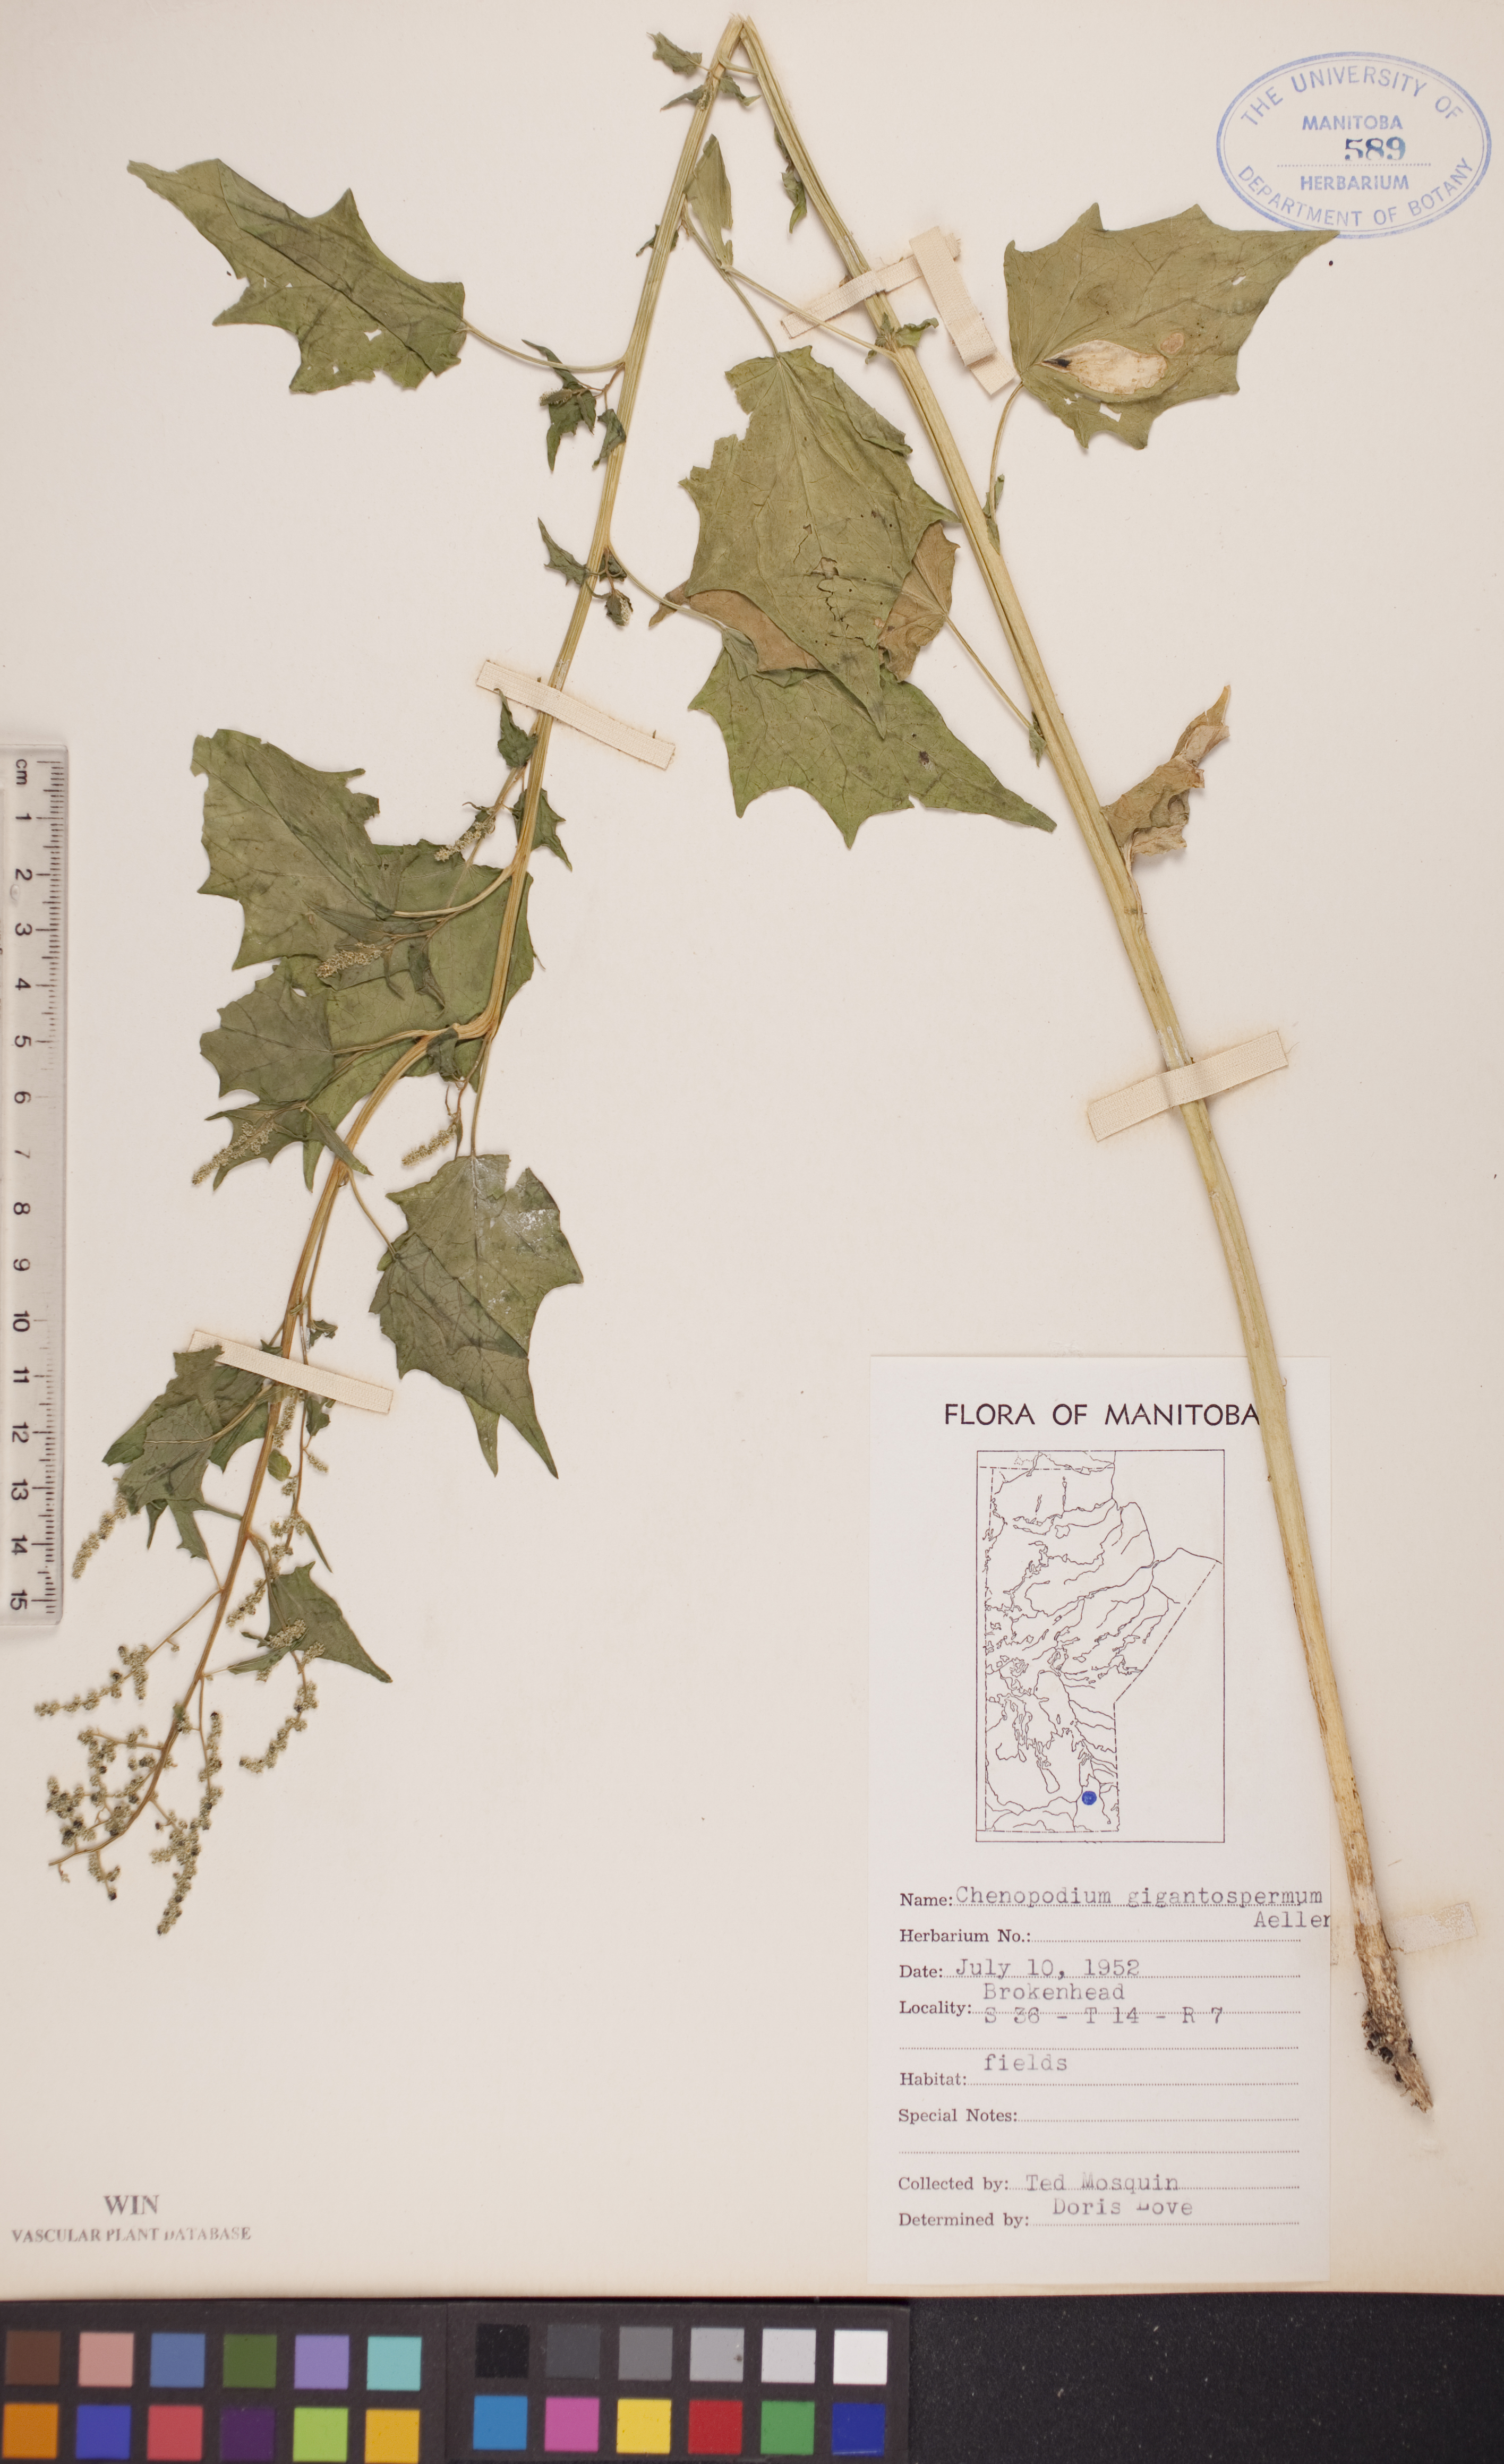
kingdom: Plantae
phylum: Tracheophyta
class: Magnoliopsida
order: Caryophyllales
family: Amaranthaceae
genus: Chenopodiastrum
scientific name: Chenopodiastrum simplex
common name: Large-seed goosefoot
